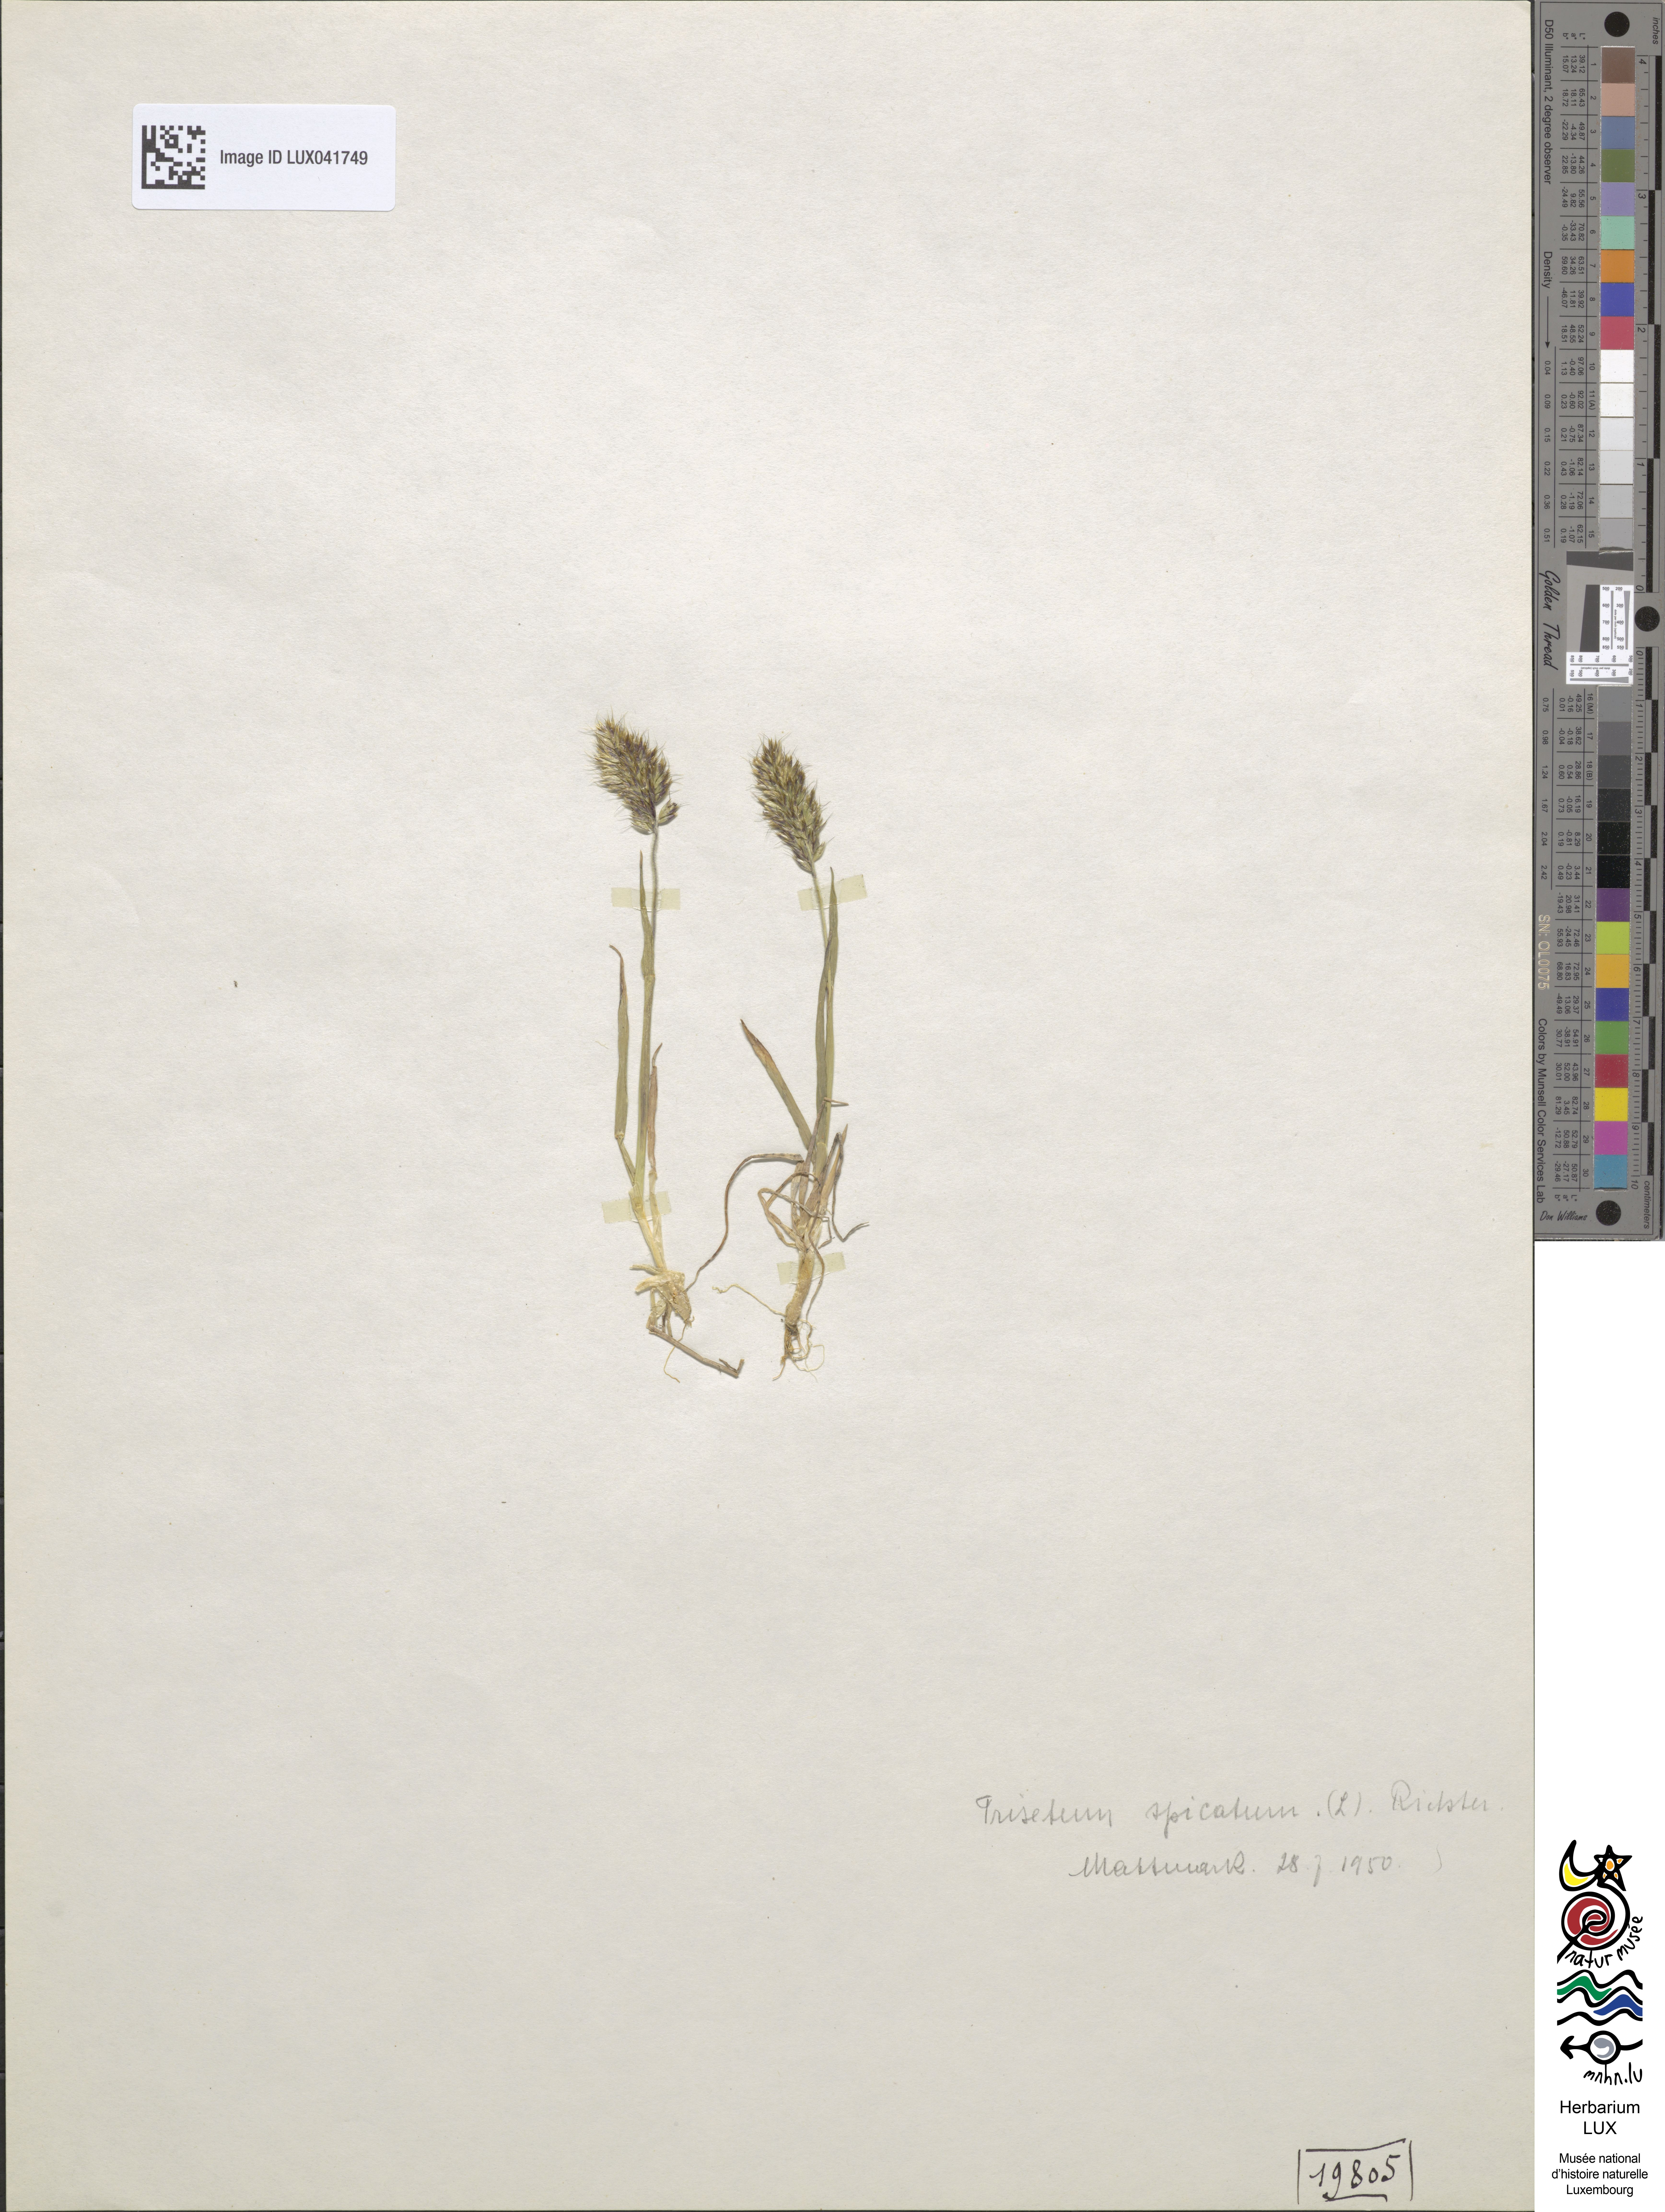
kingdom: Plantae
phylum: Tracheophyta
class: Liliopsida
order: Poales
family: Poaceae
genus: Koeleria
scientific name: Koeleria spicata
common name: Mountain trisetum
